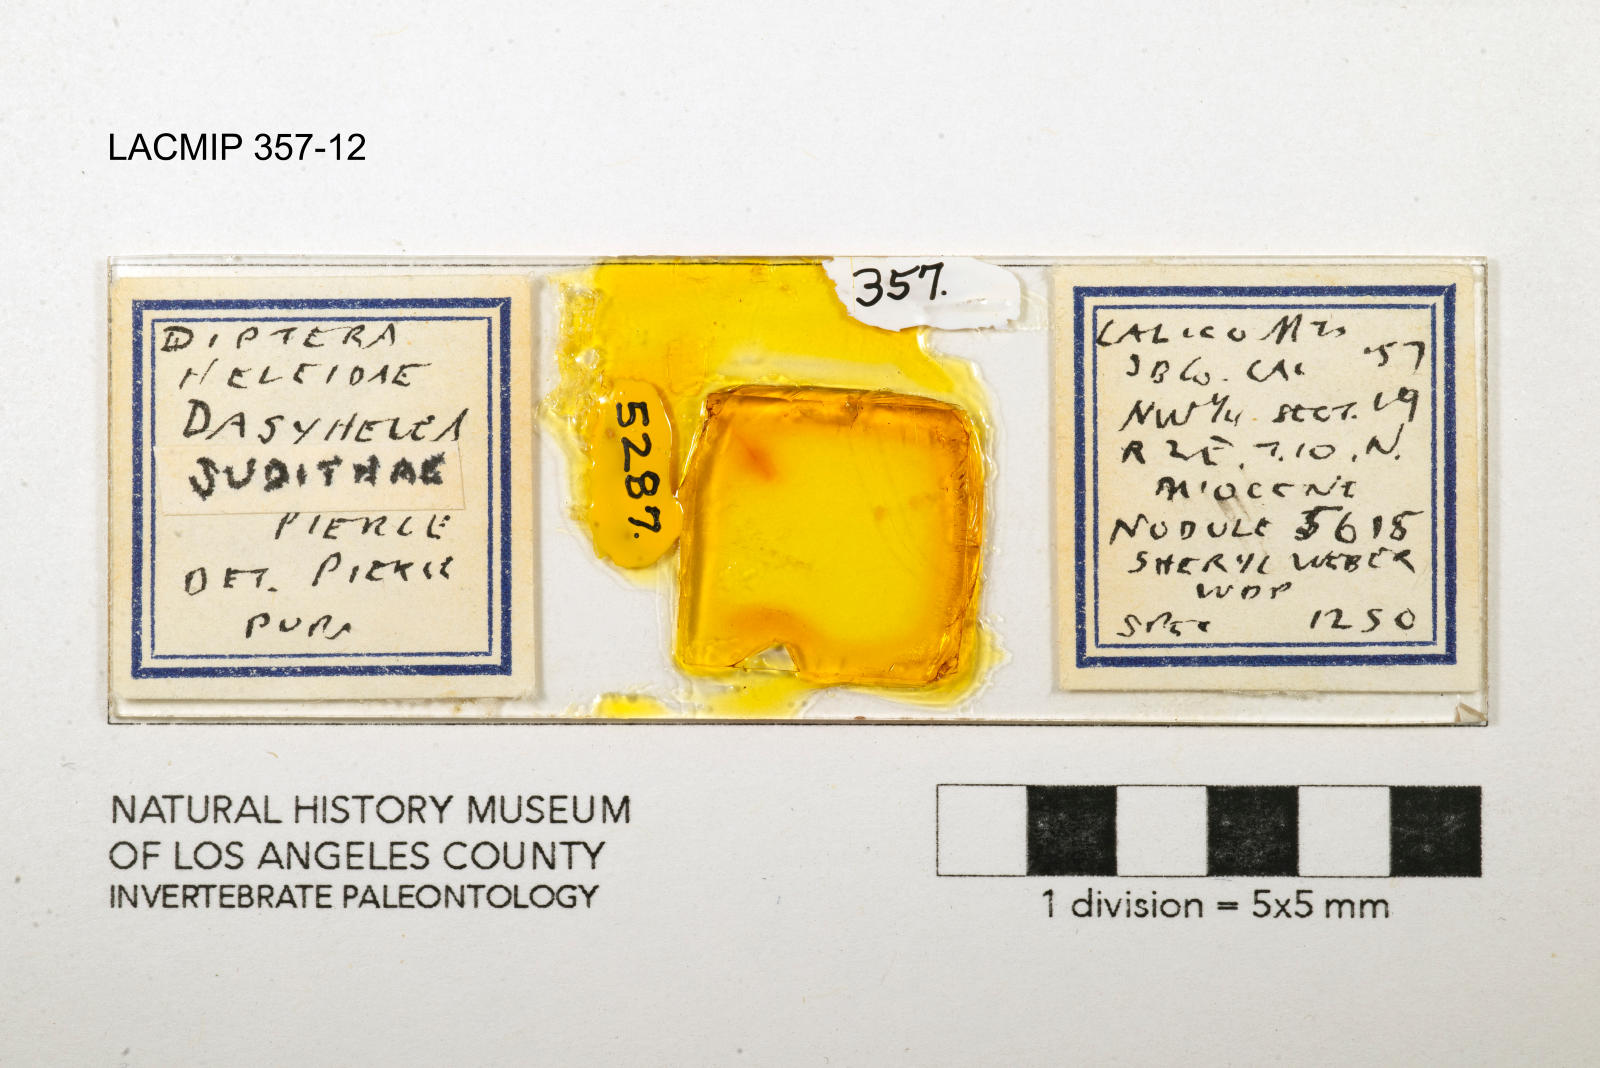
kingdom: Animalia
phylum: Arthropoda
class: Insecta
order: Diptera
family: Ceratopogonidae
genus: Dasyhelea
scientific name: Dasyhelea judithae
